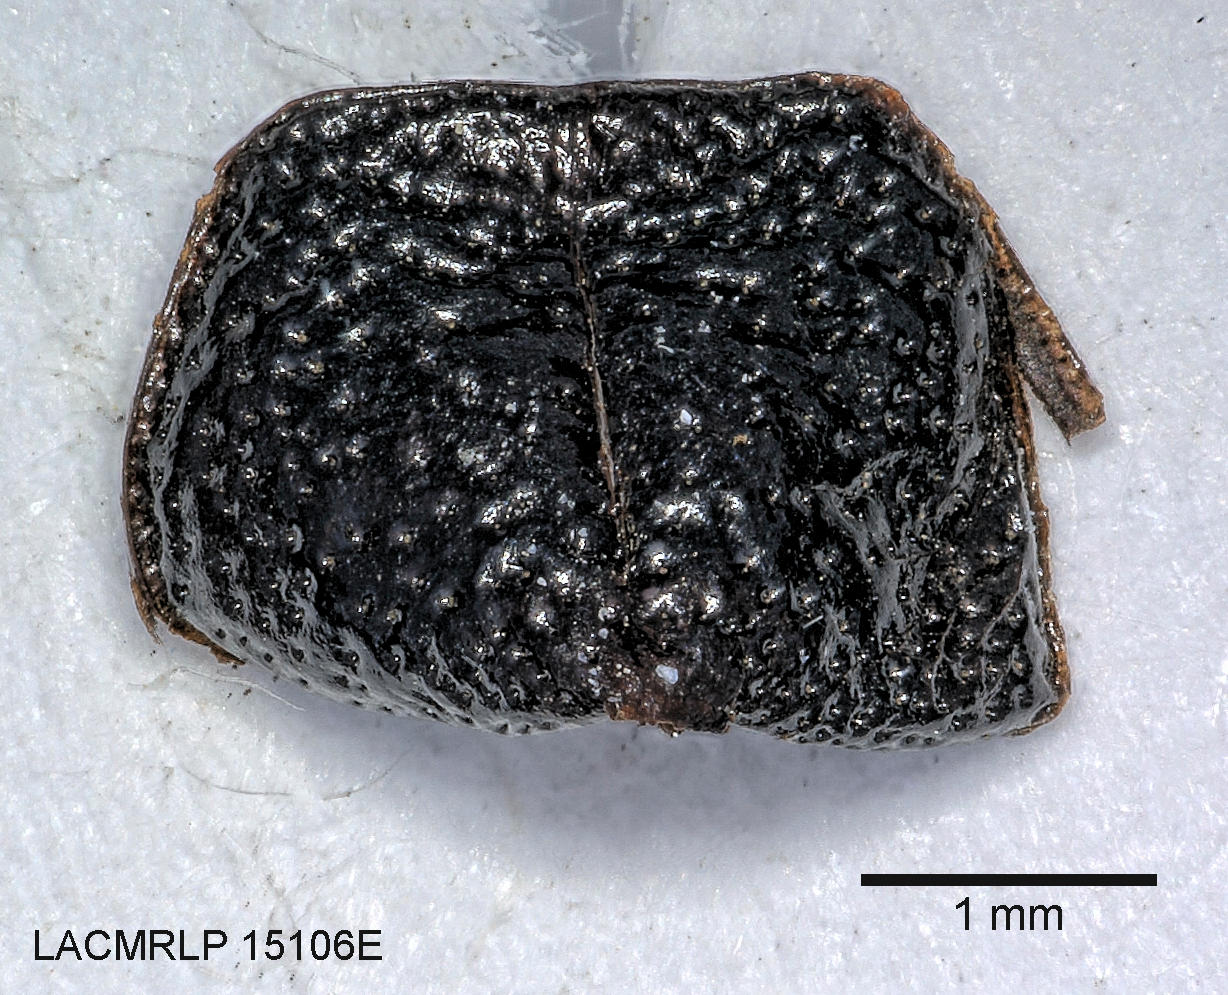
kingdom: Animalia
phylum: Arthropoda
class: Insecta
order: Coleoptera
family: Carabidae
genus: Dicheirus
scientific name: Dicheirus
